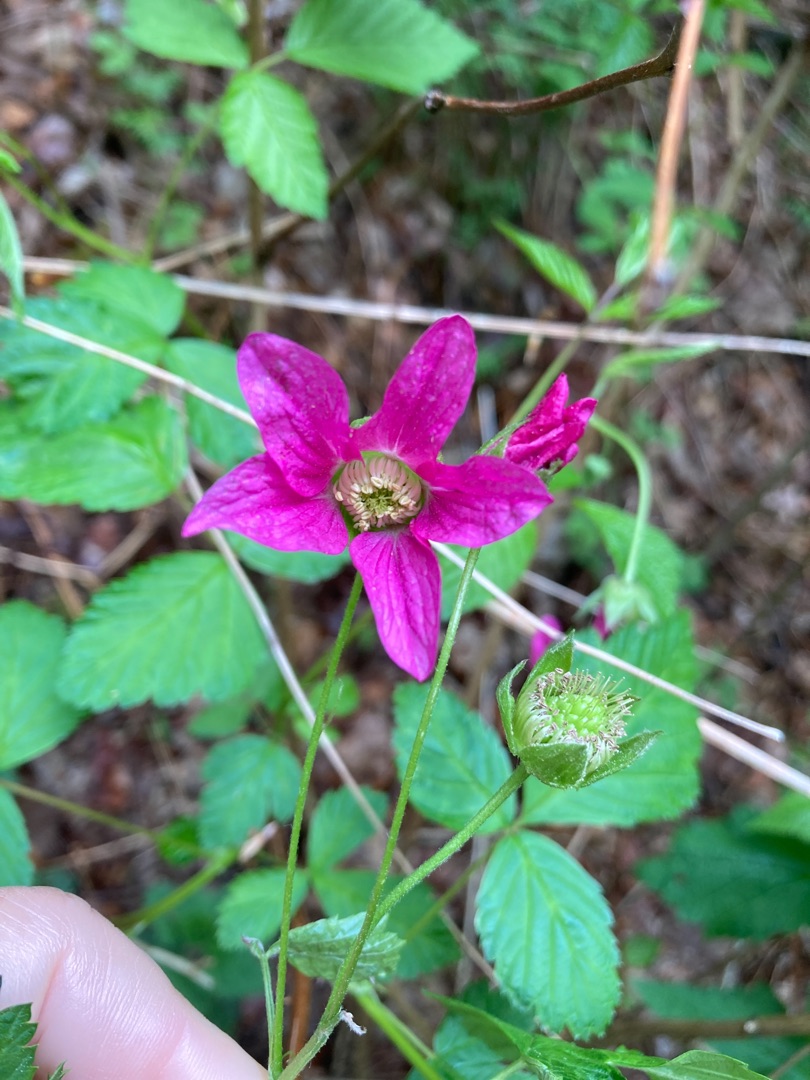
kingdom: Plantae
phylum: Tracheophyta
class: Magnoliopsida
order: Rosales
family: Rosaceae
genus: Rubus
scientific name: Rubus spectabilis
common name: Laksebær
